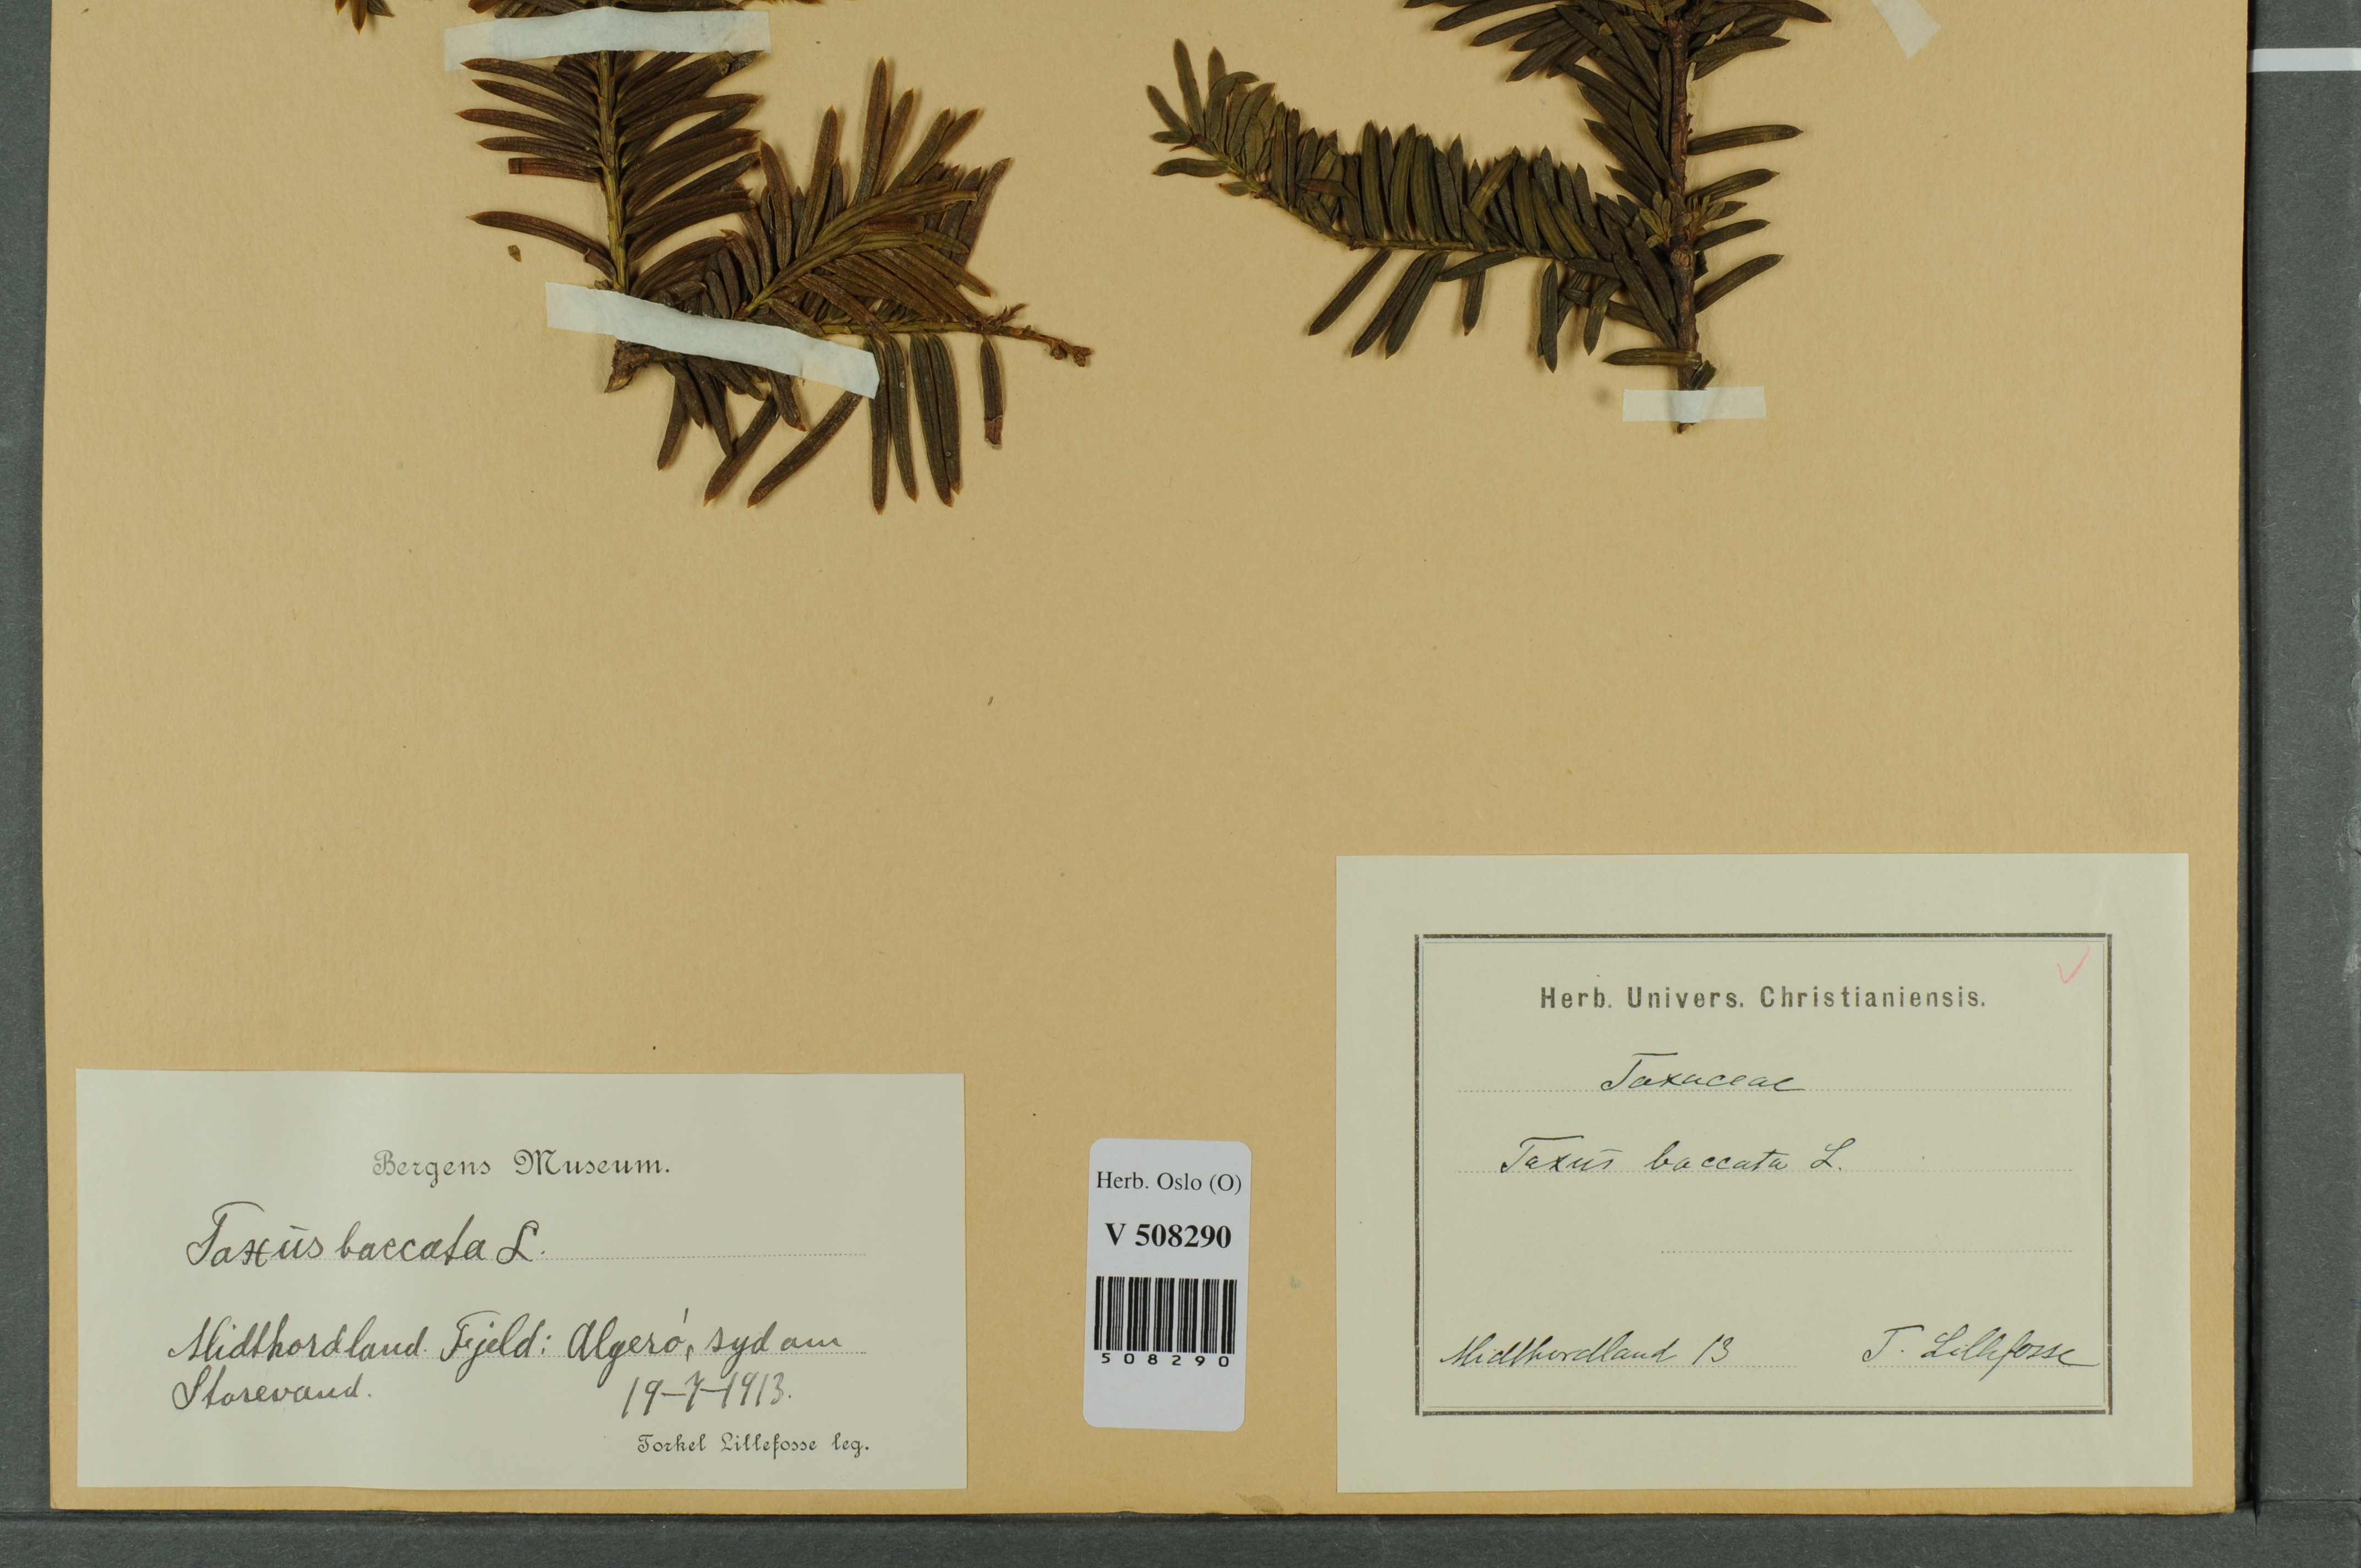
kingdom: Plantae
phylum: Tracheophyta
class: Pinopsida
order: Pinales
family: Taxaceae
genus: Taxus
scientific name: Taxus baccata
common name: Yew
